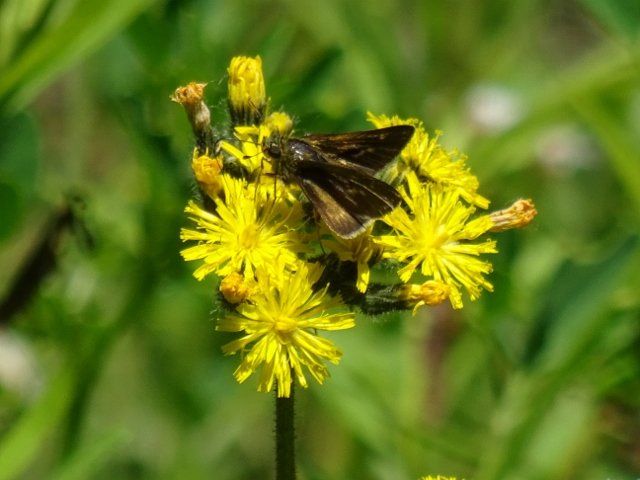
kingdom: Animalia
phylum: Arthropoda
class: Insecta
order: Lepidoptera
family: Hesperiidae
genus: Polites
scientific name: Polites egeremet
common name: Northern Broken-Dash
